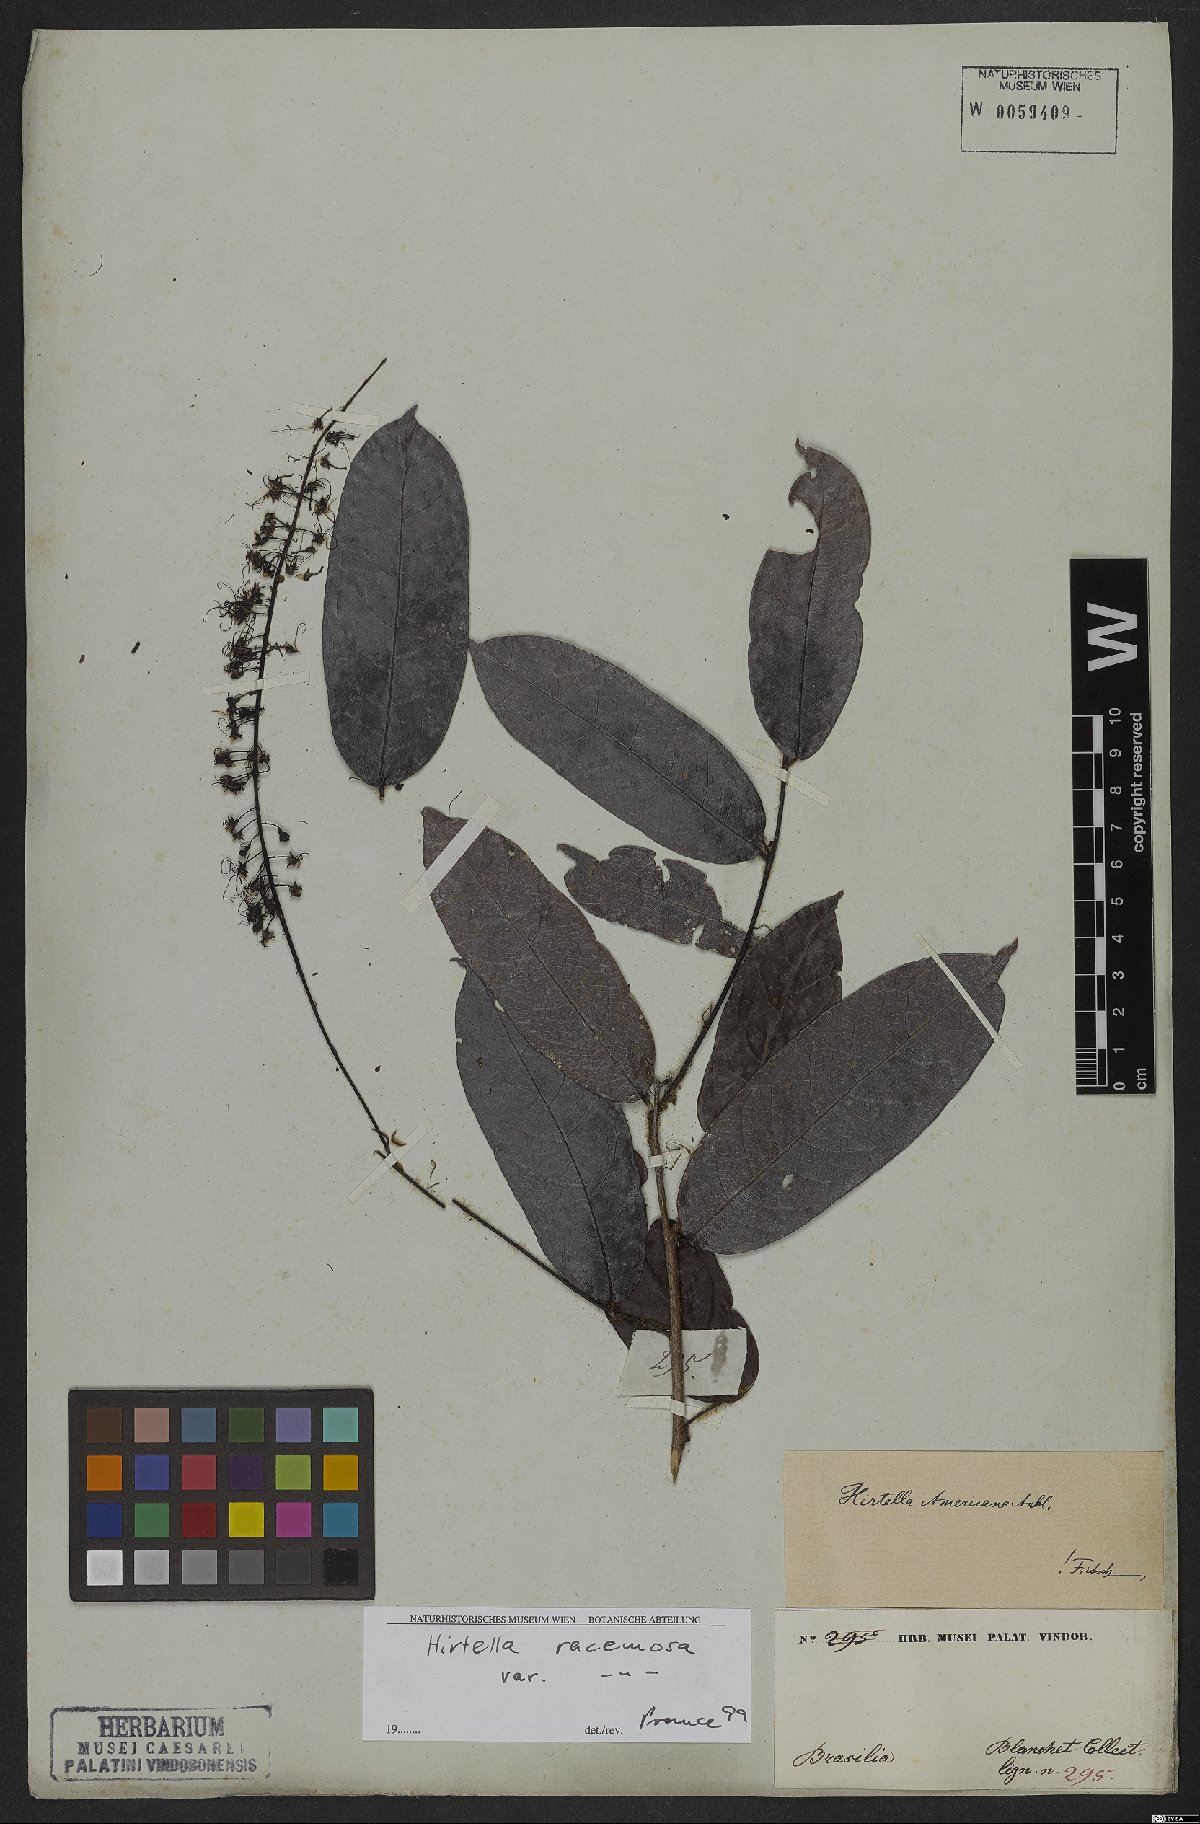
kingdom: Plantae
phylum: Tracheophyta
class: Magnoliopsida
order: Malpighiales
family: Chrysobalanaceae
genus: Hirtella
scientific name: Hirtella racemosa
